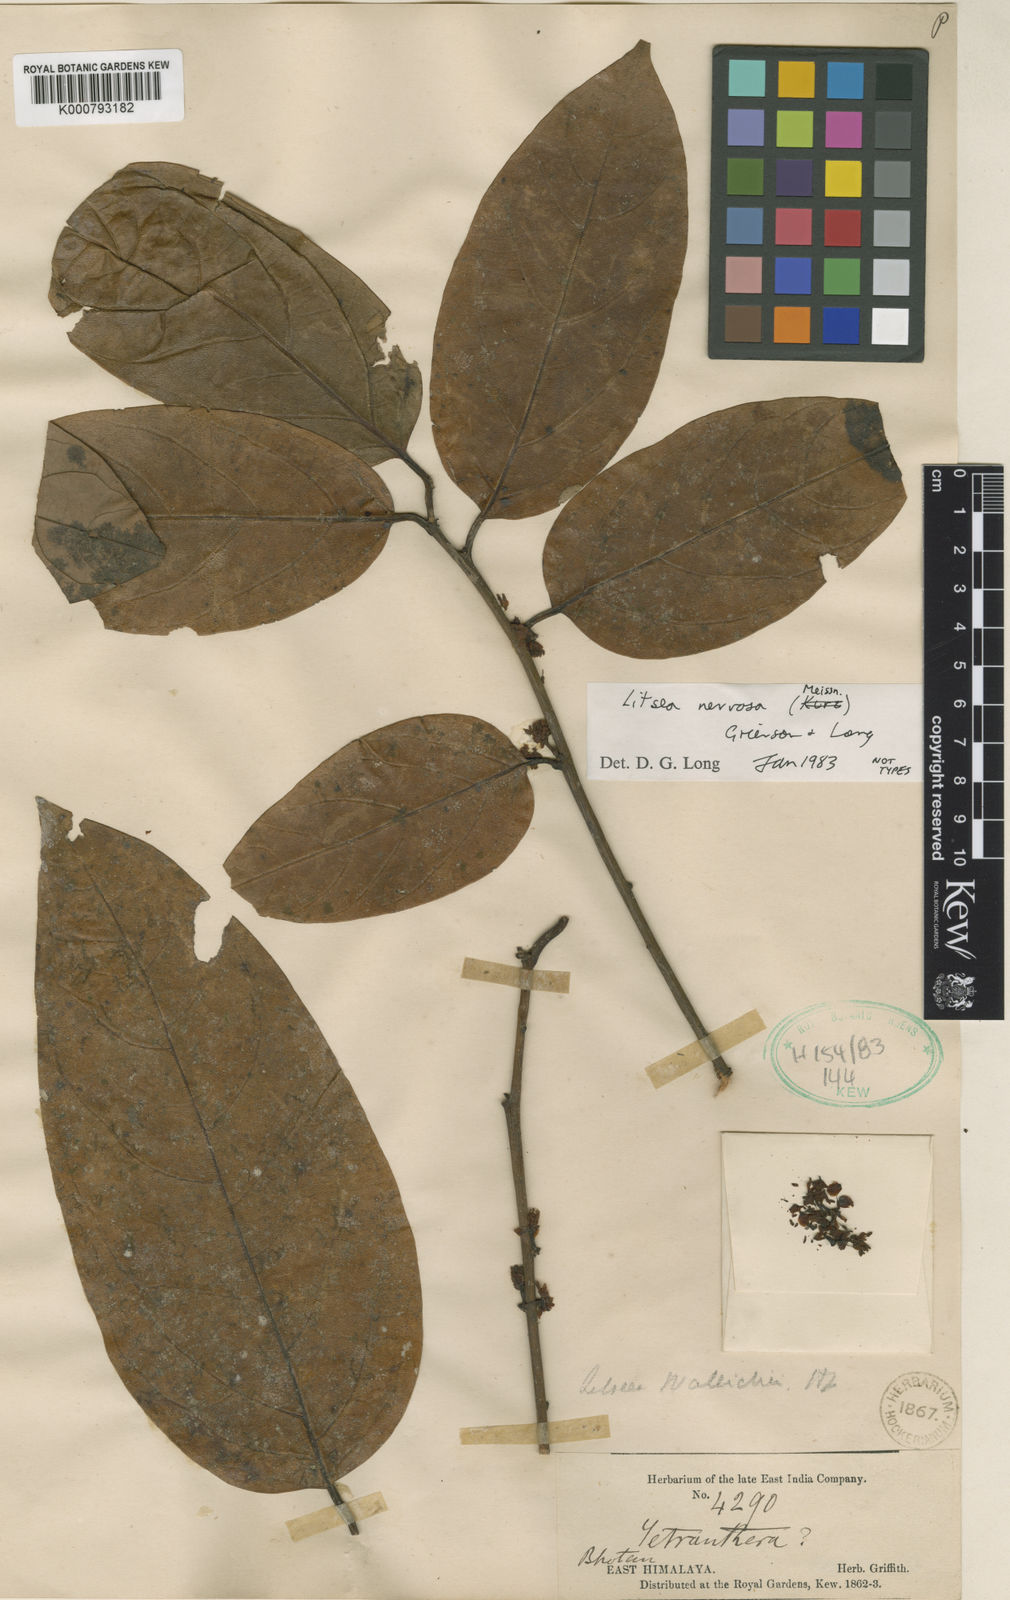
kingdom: Plantae
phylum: Tracheophyta
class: Magnoliopsida
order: Laurales
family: Lauraceae
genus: Litsea
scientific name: Litsea nervosa
